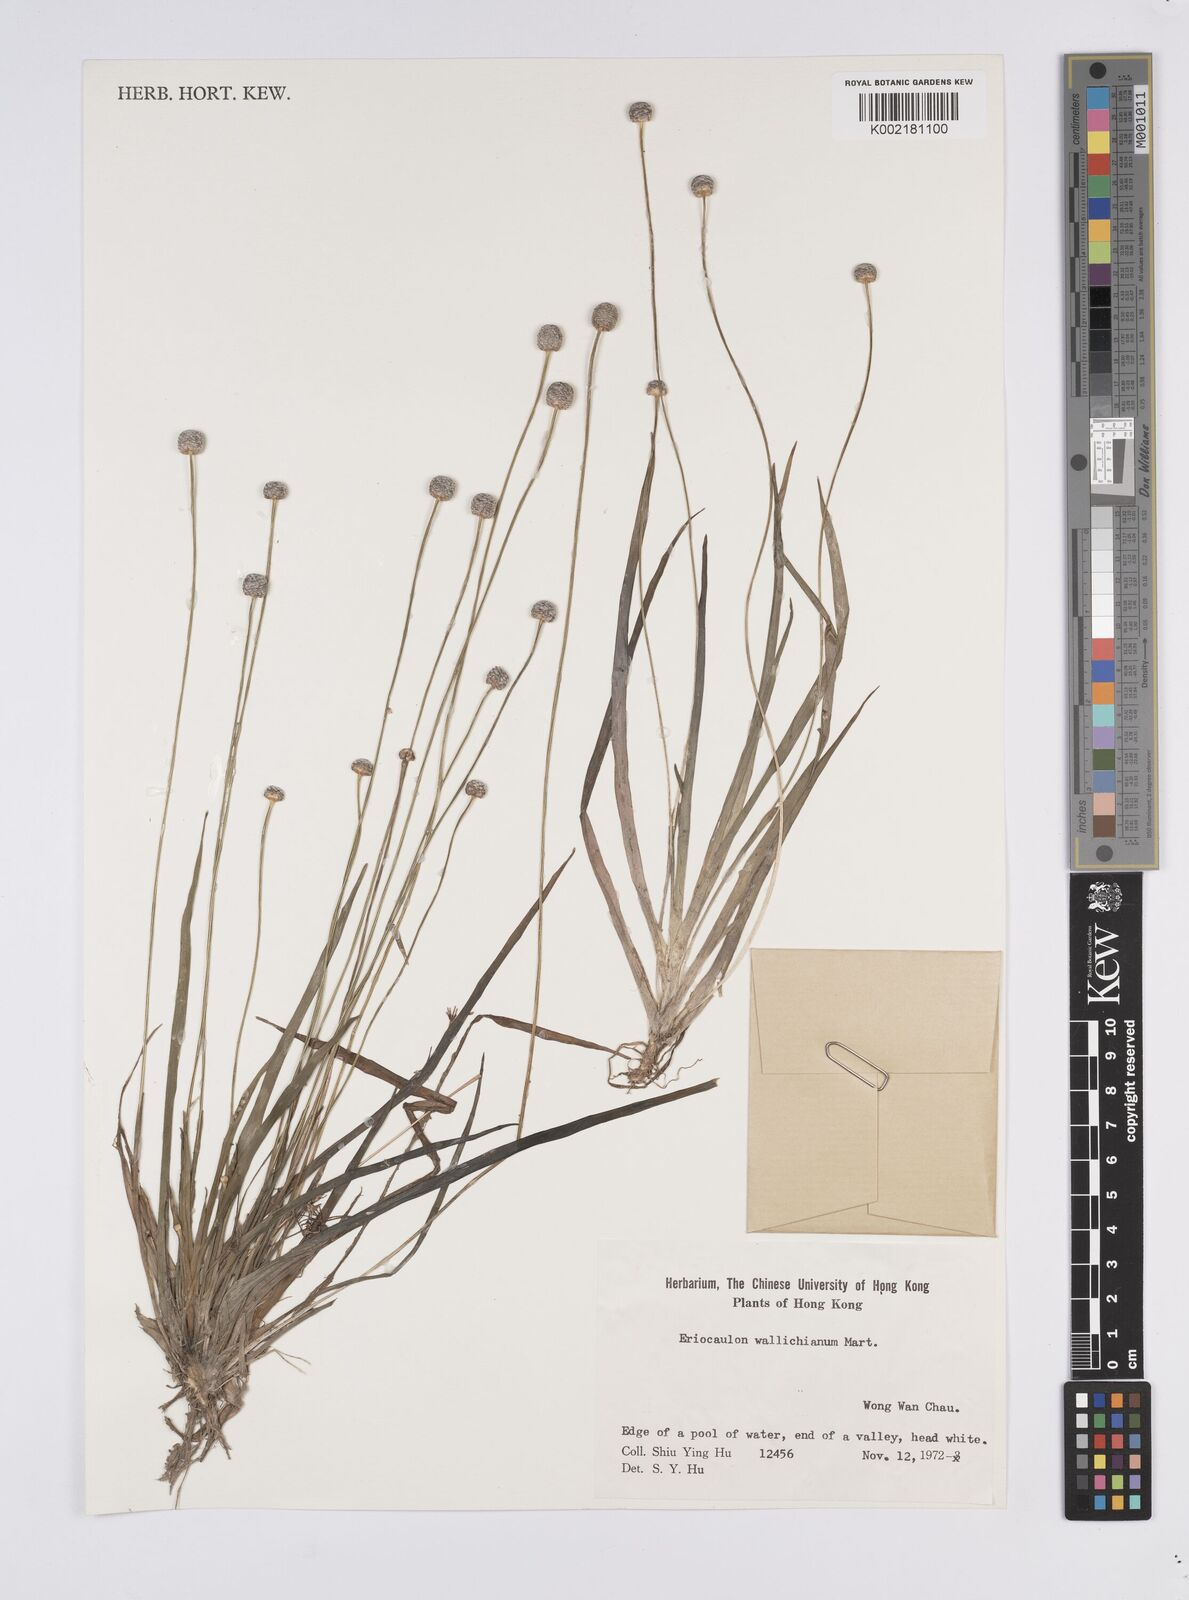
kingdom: Plantae
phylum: Tracheophyta
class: Liliopsida
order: Poales
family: Eriocaulaceae
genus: Eriocaulon
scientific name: Eriocaulon sexangulare
